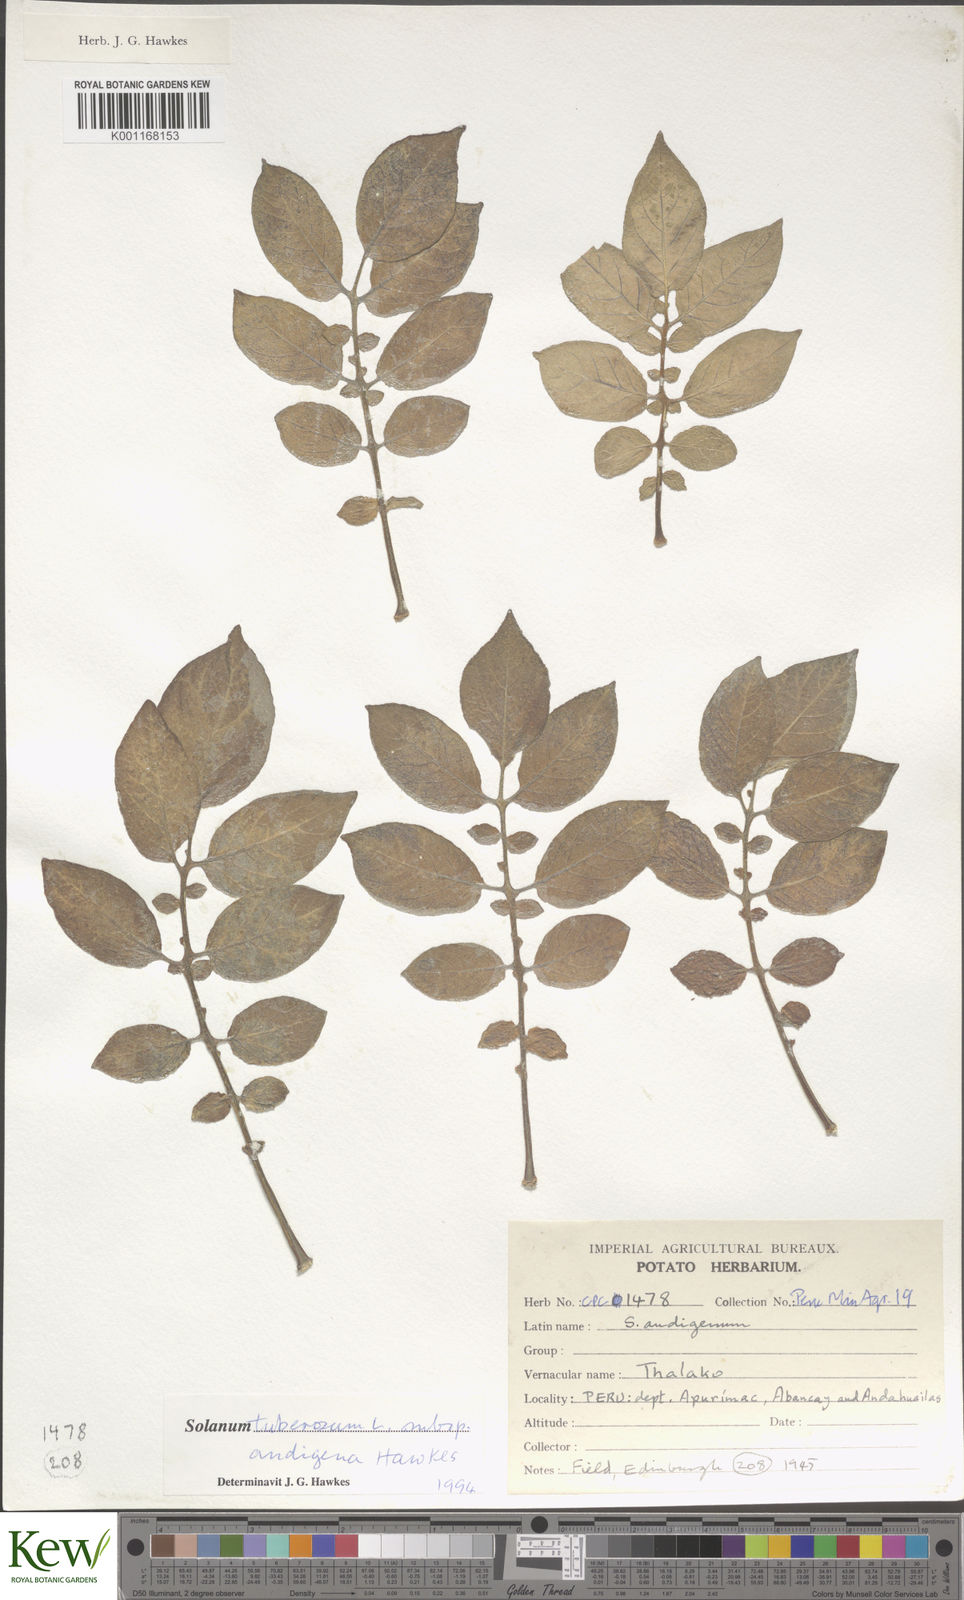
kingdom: Plantae
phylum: Tracheophyta
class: Magnoliopsida
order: Solanales
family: Solanaceae
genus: Solanum
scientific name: Solanum tuberosum
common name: Potato
